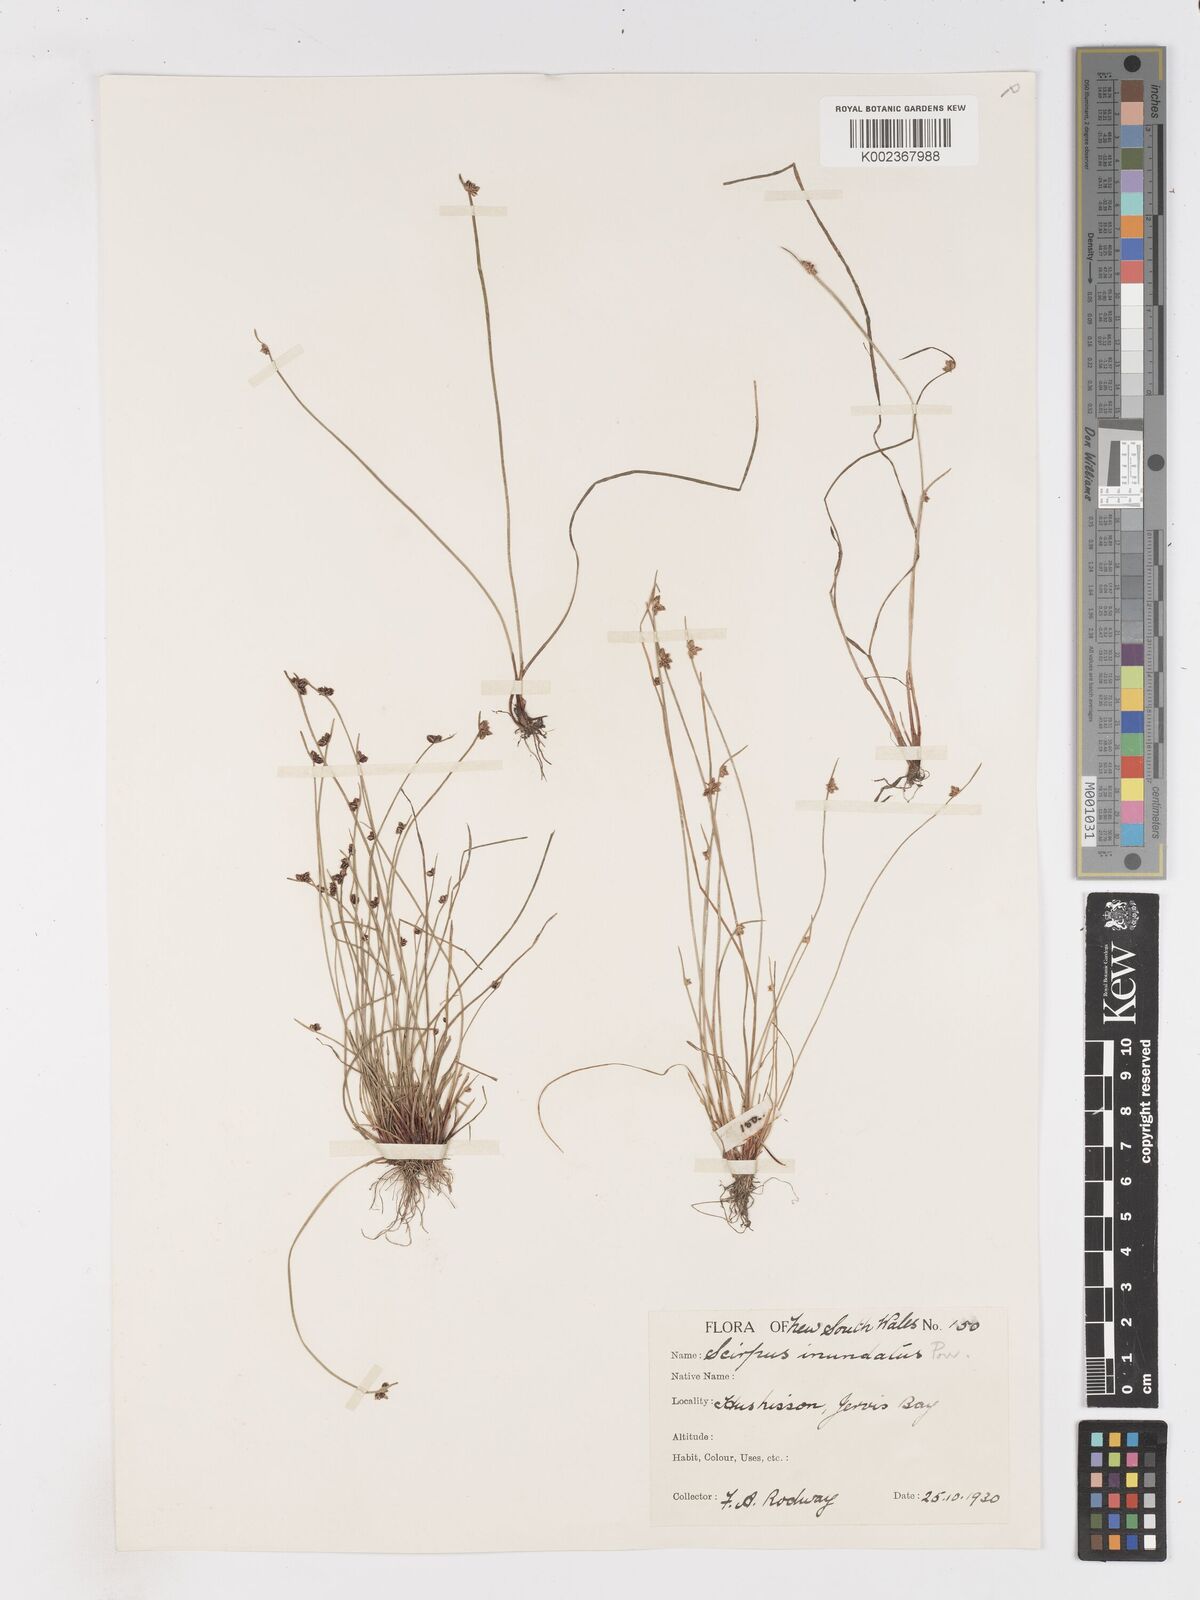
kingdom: Plantae
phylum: Tracheophyta
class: Liliopsida
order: Poales
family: Cyperaceae
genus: Isolepis
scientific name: Isolepis inundata
